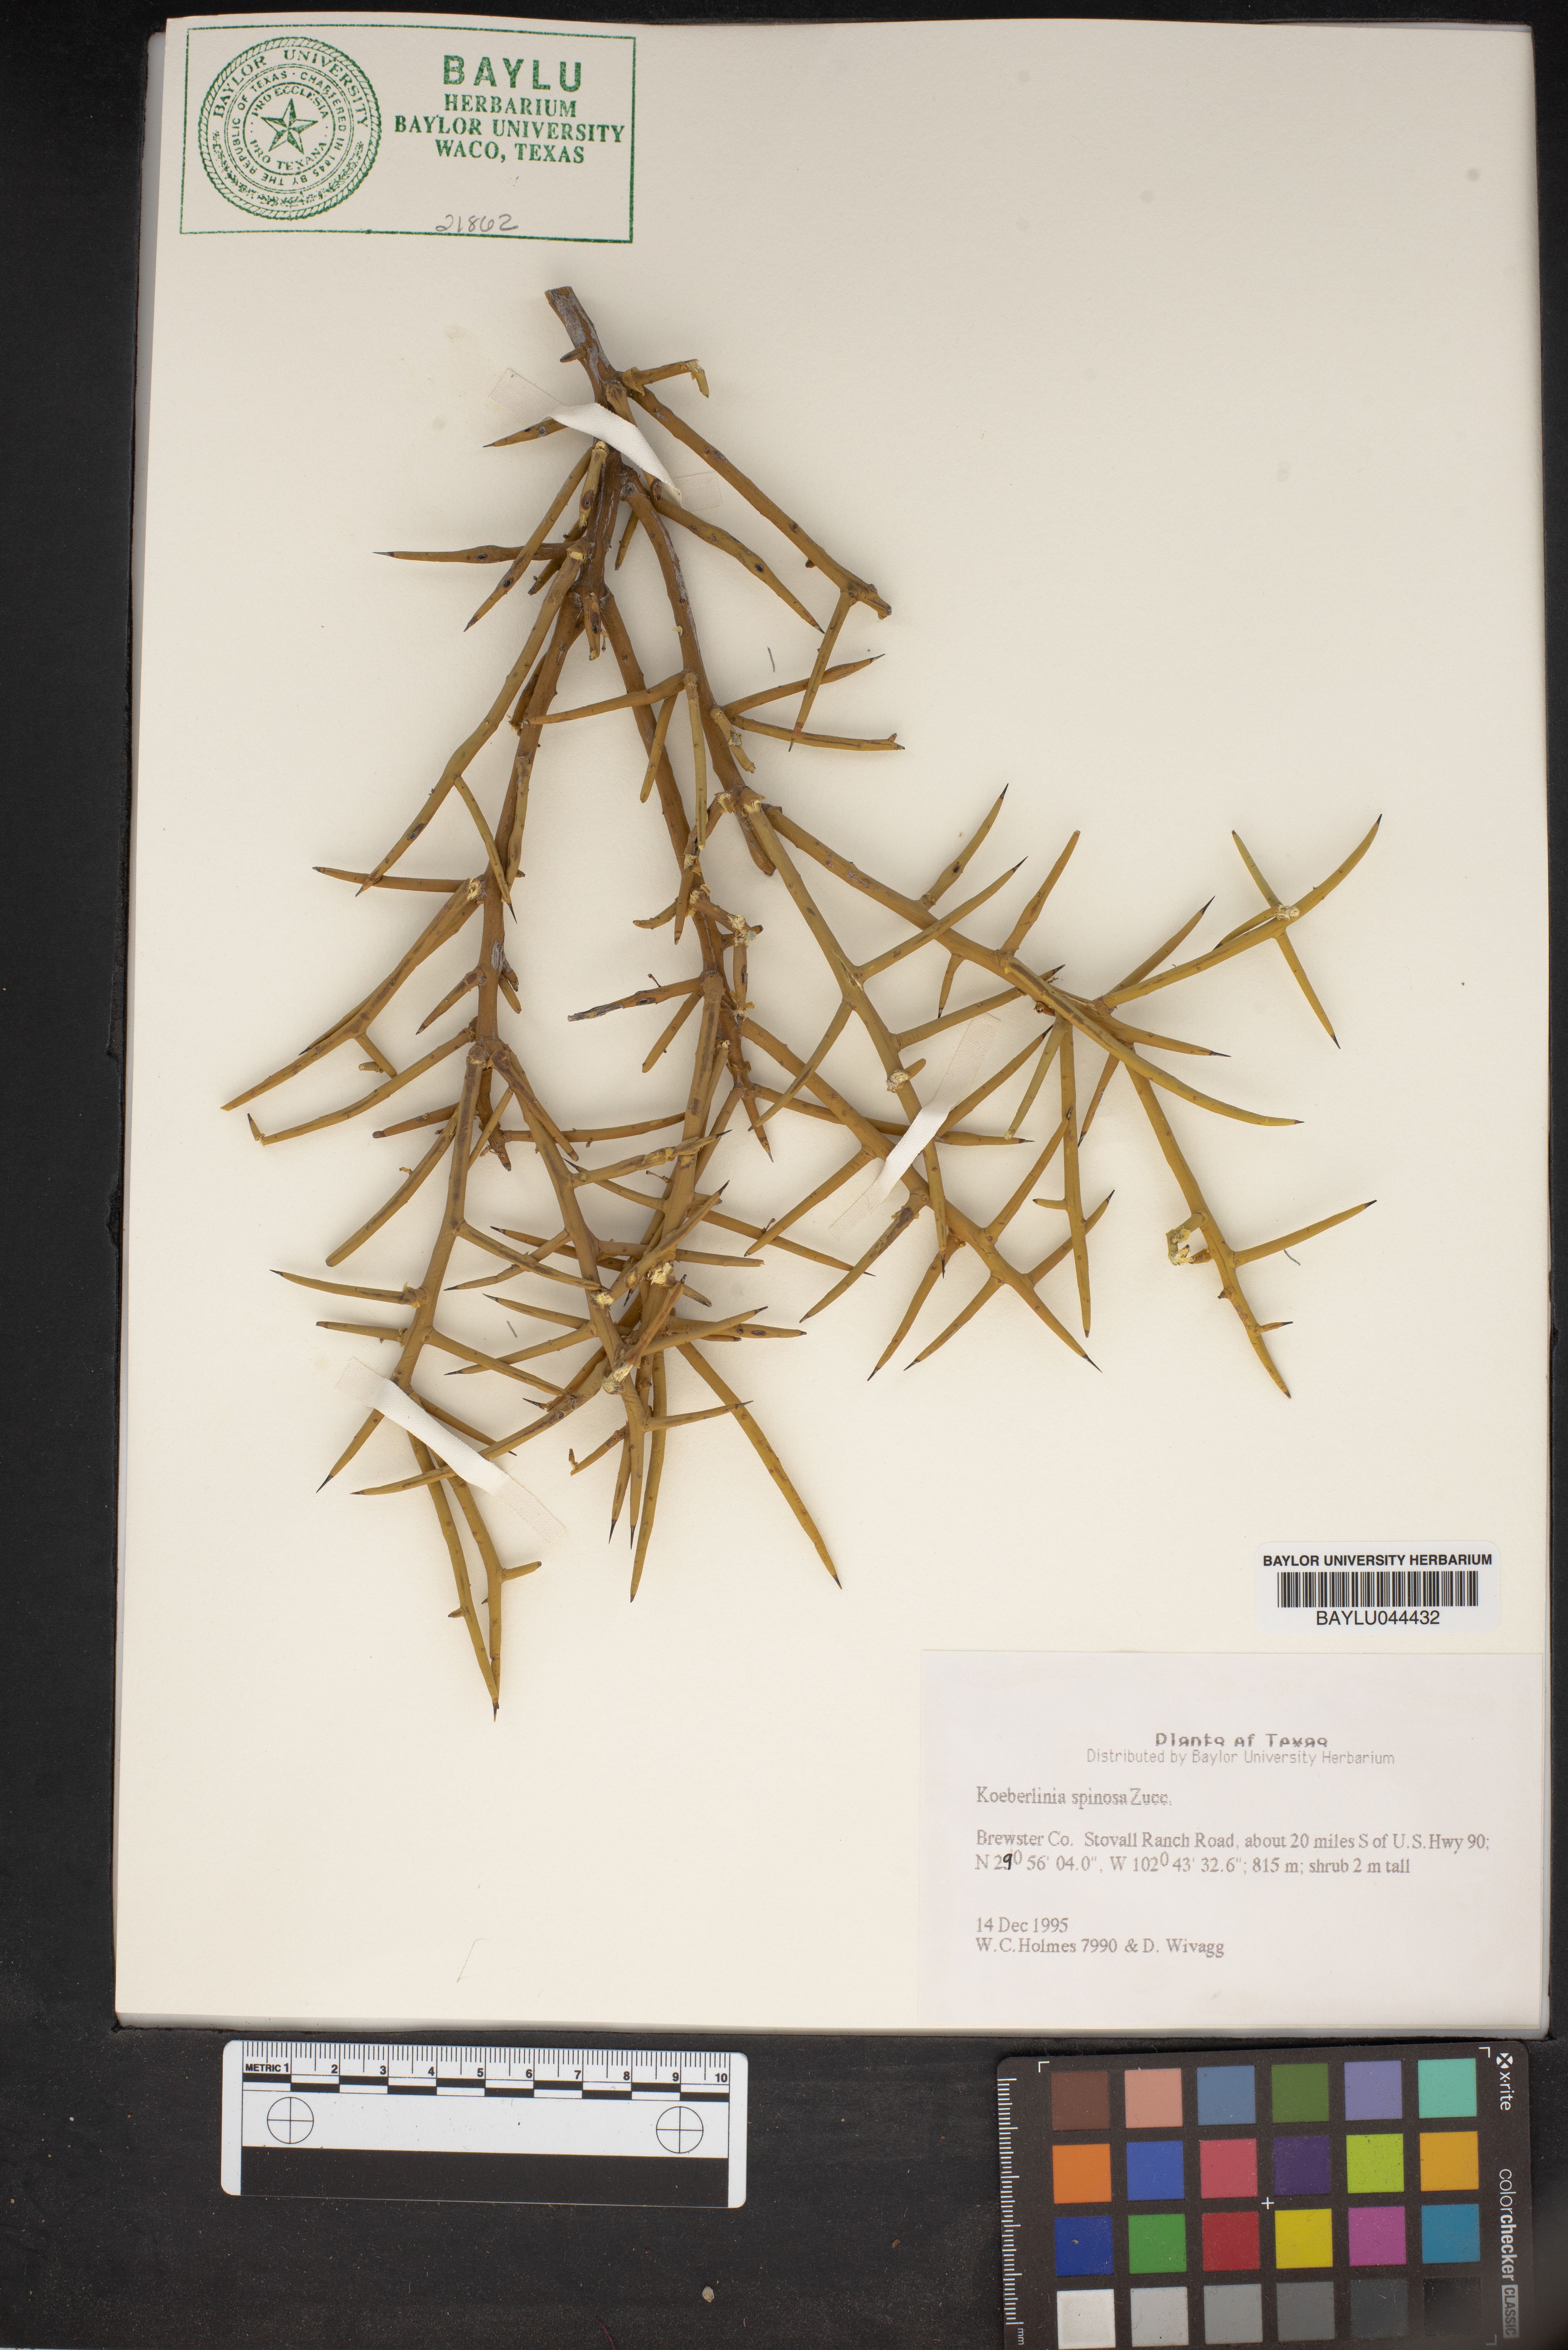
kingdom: Plantae
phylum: Tracheophyta
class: Magnoliopsida
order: Brassicales
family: Koeberliniaceae
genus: Koeberlinia
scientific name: Koeberlinia spinosa
